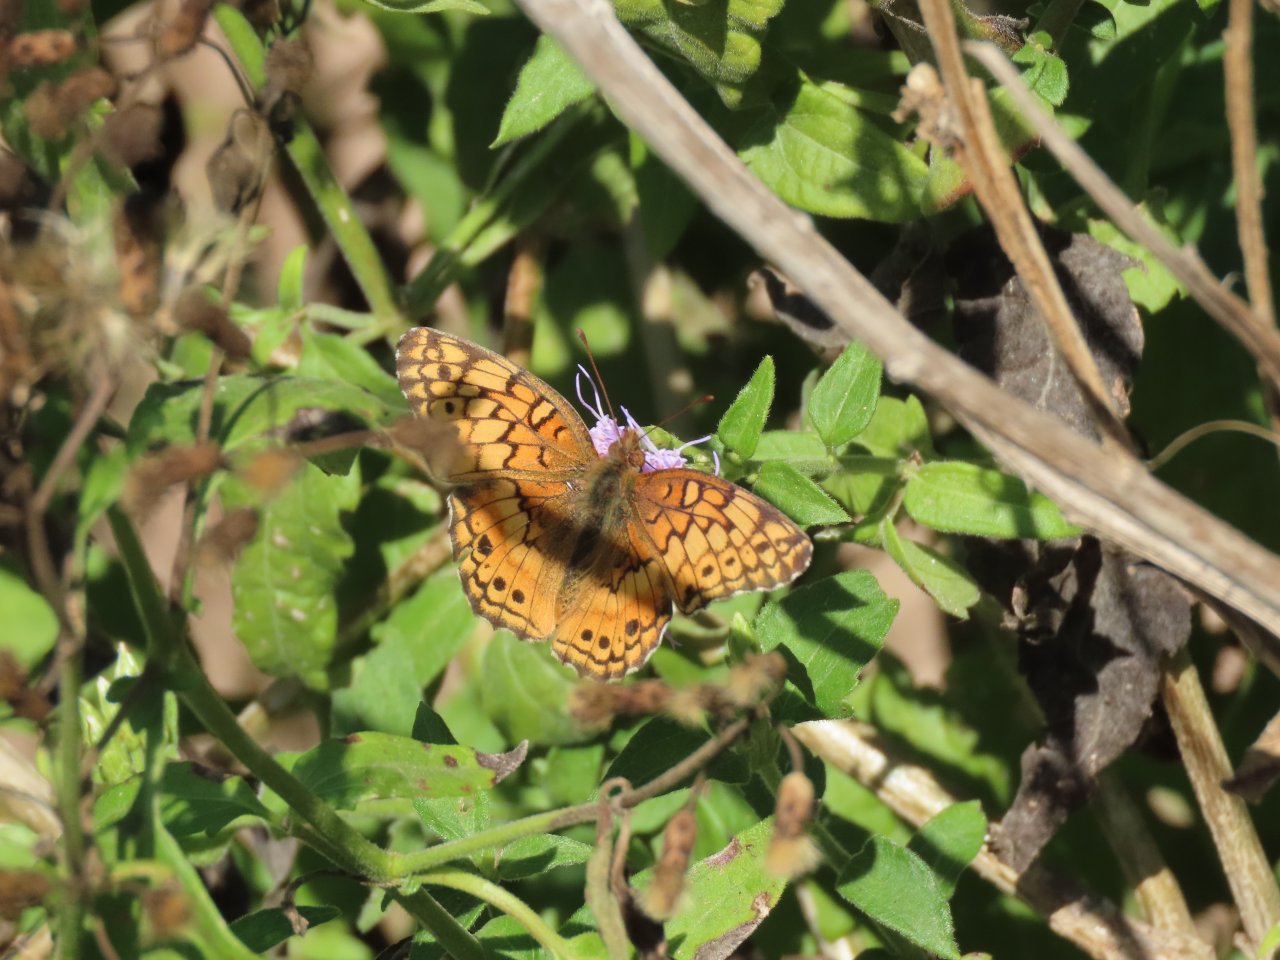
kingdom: Animalia
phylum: Arthropoda
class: Insecta
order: Lepidoptera
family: Nymphalidae
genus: Euptoieta
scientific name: Euptoieta claudia
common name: Variegated Fritillary
